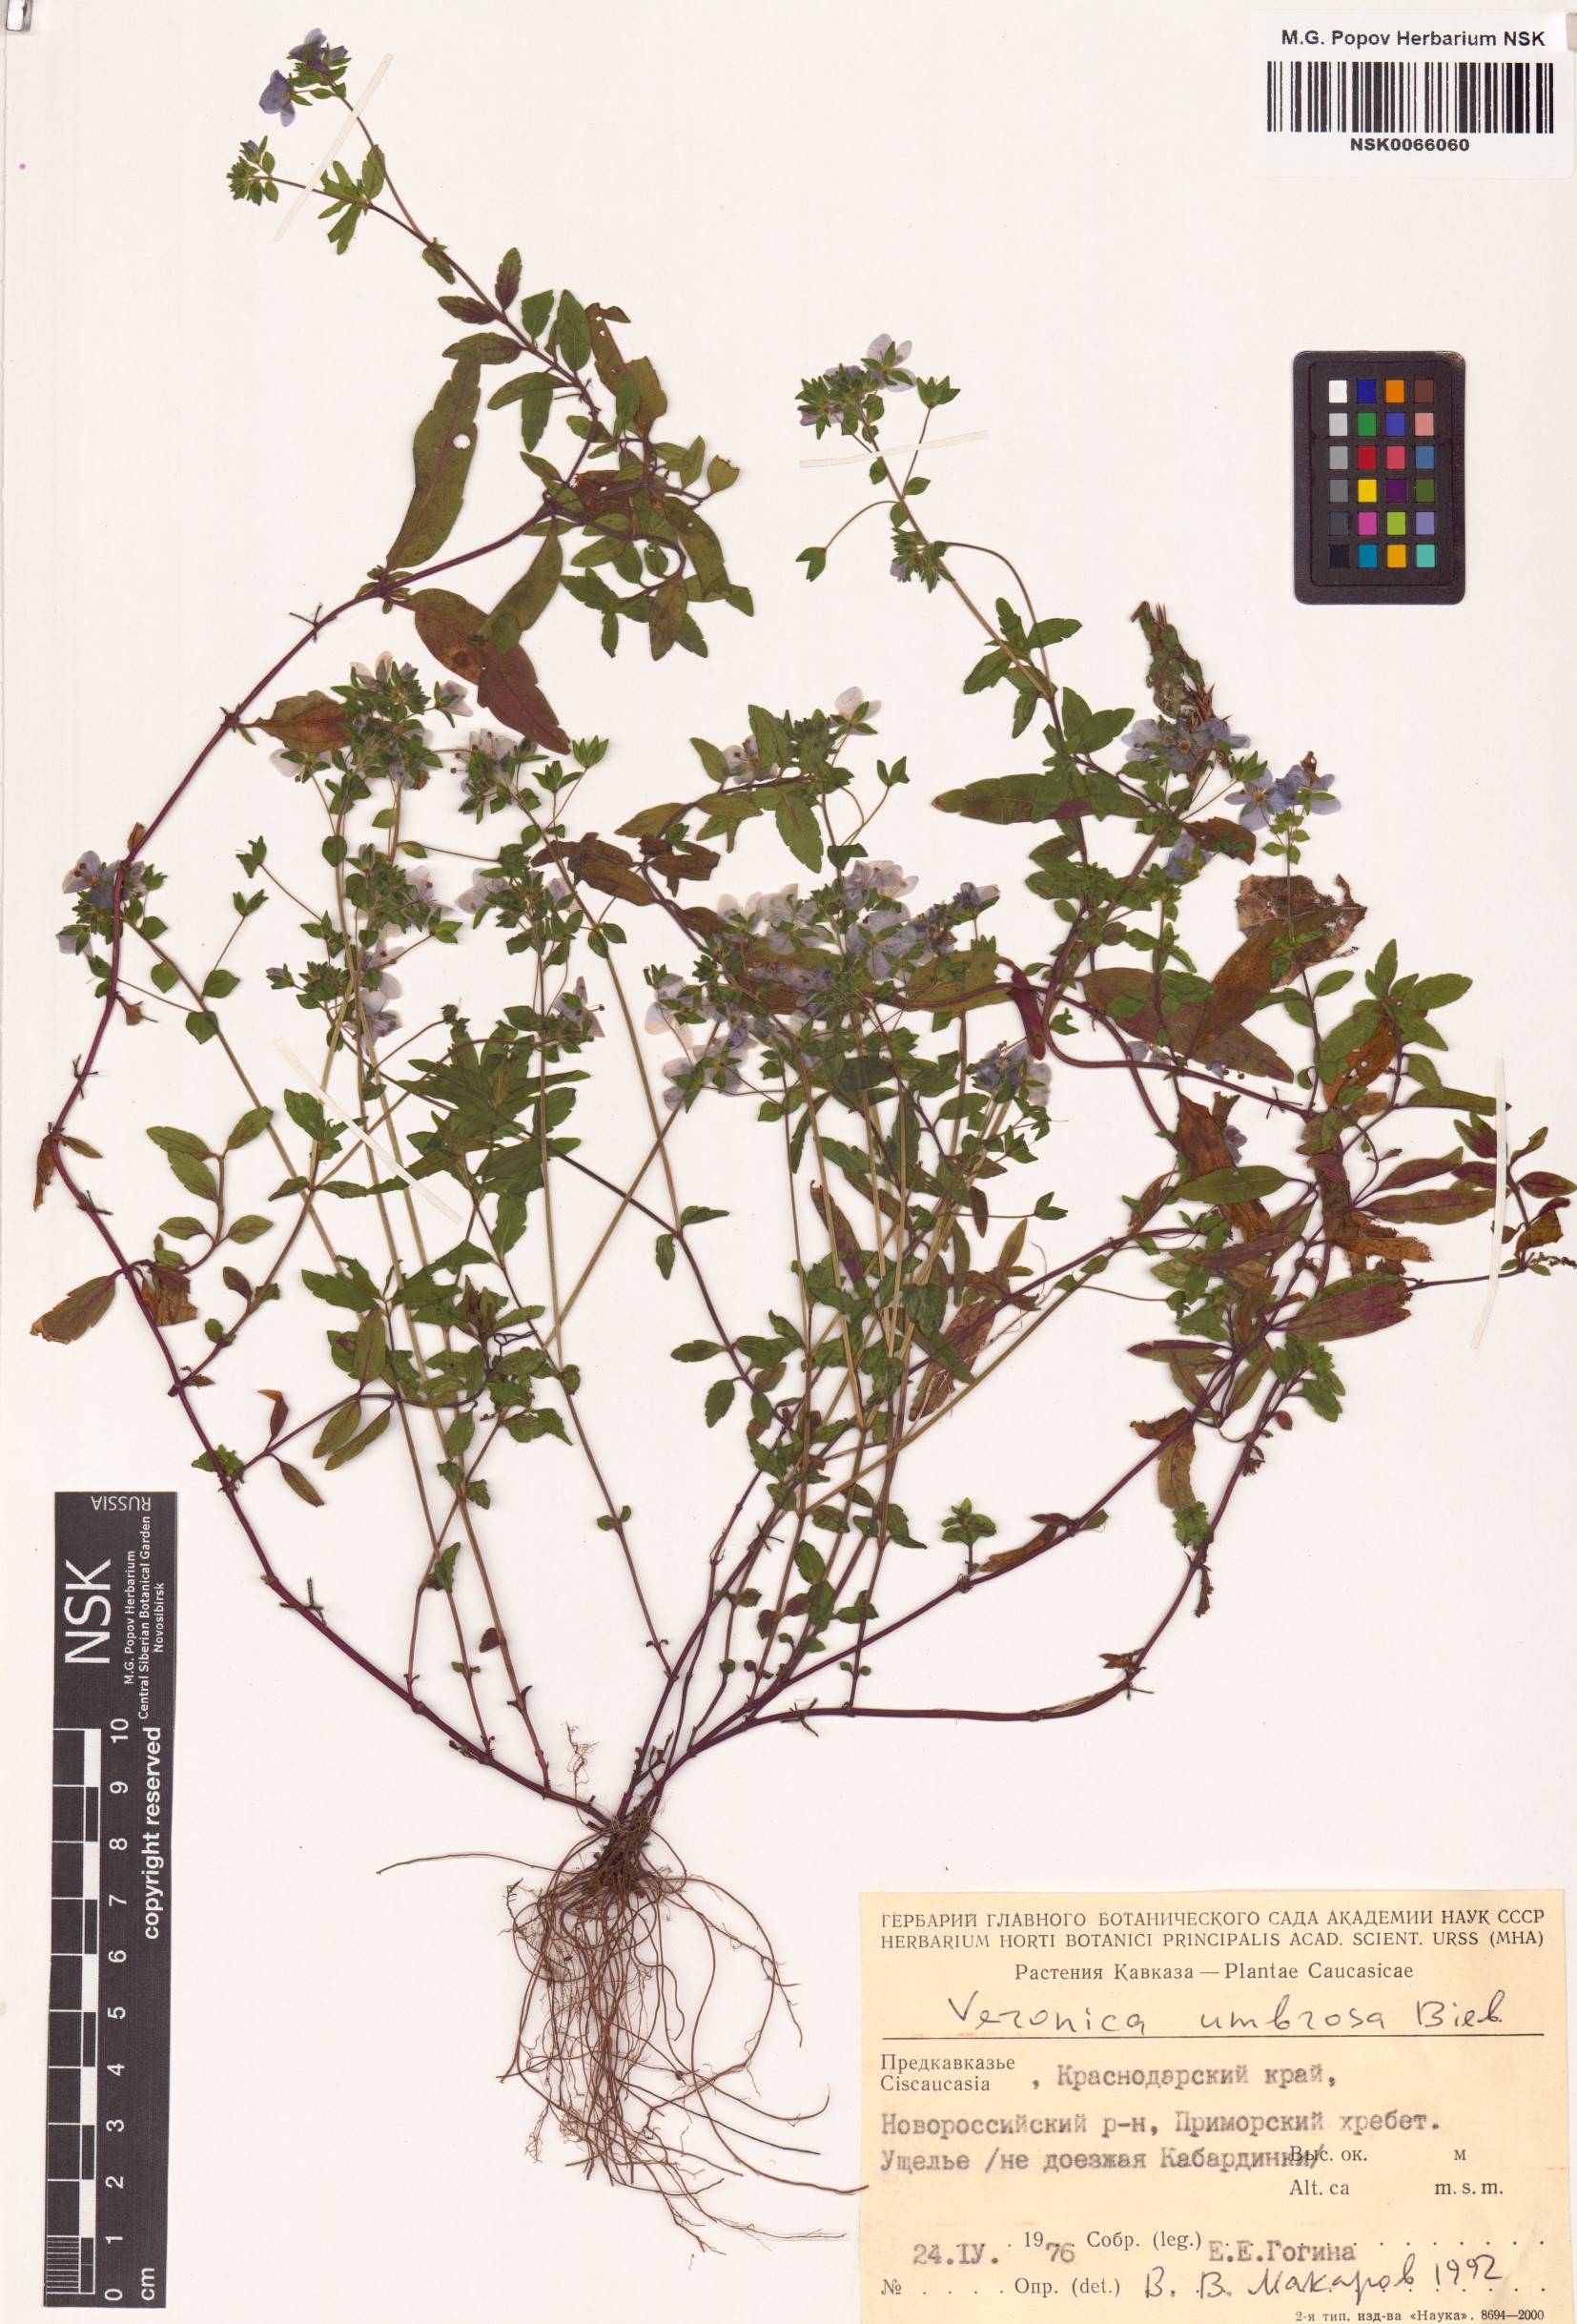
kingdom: Plantae
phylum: Tracheophyta
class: Magnoliopsida
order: Lamiales
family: Plantaginaceae
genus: Veronica
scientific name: Veronica peduncularis
